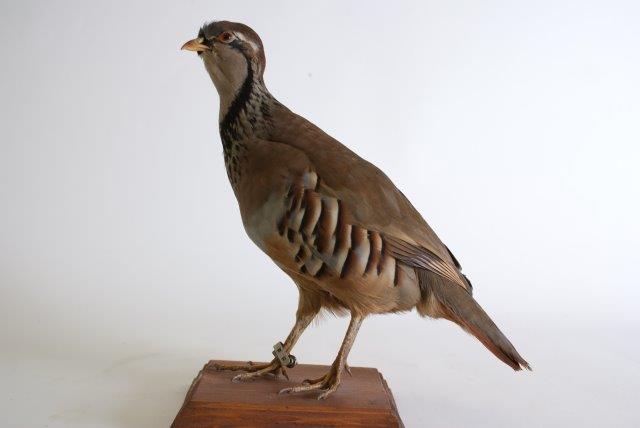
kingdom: Animalia
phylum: Chordata
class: Aves
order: Galliformes
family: Phasianidae
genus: Alectoris
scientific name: Alectoris rufa
